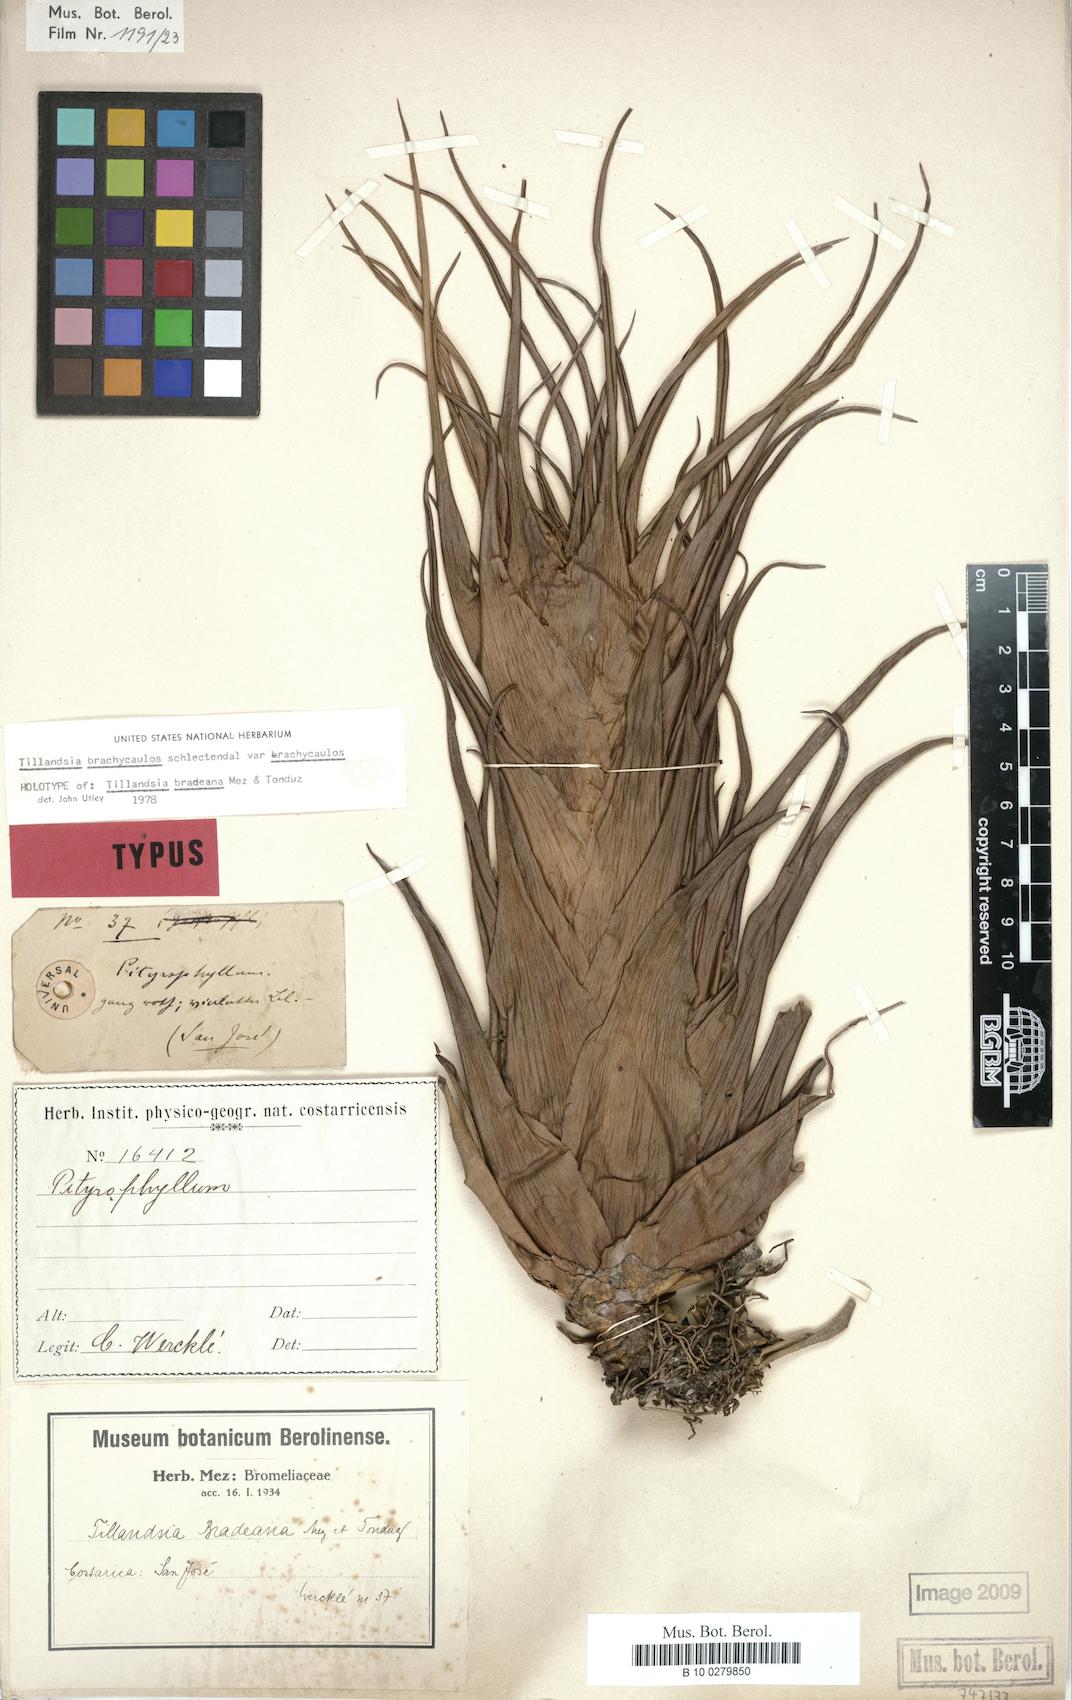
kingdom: Plantae
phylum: Tracheophyta
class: Liliopsida
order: Poales
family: Bromeliaceae
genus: Tillandsia
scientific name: Tillandsia brachycaulos
